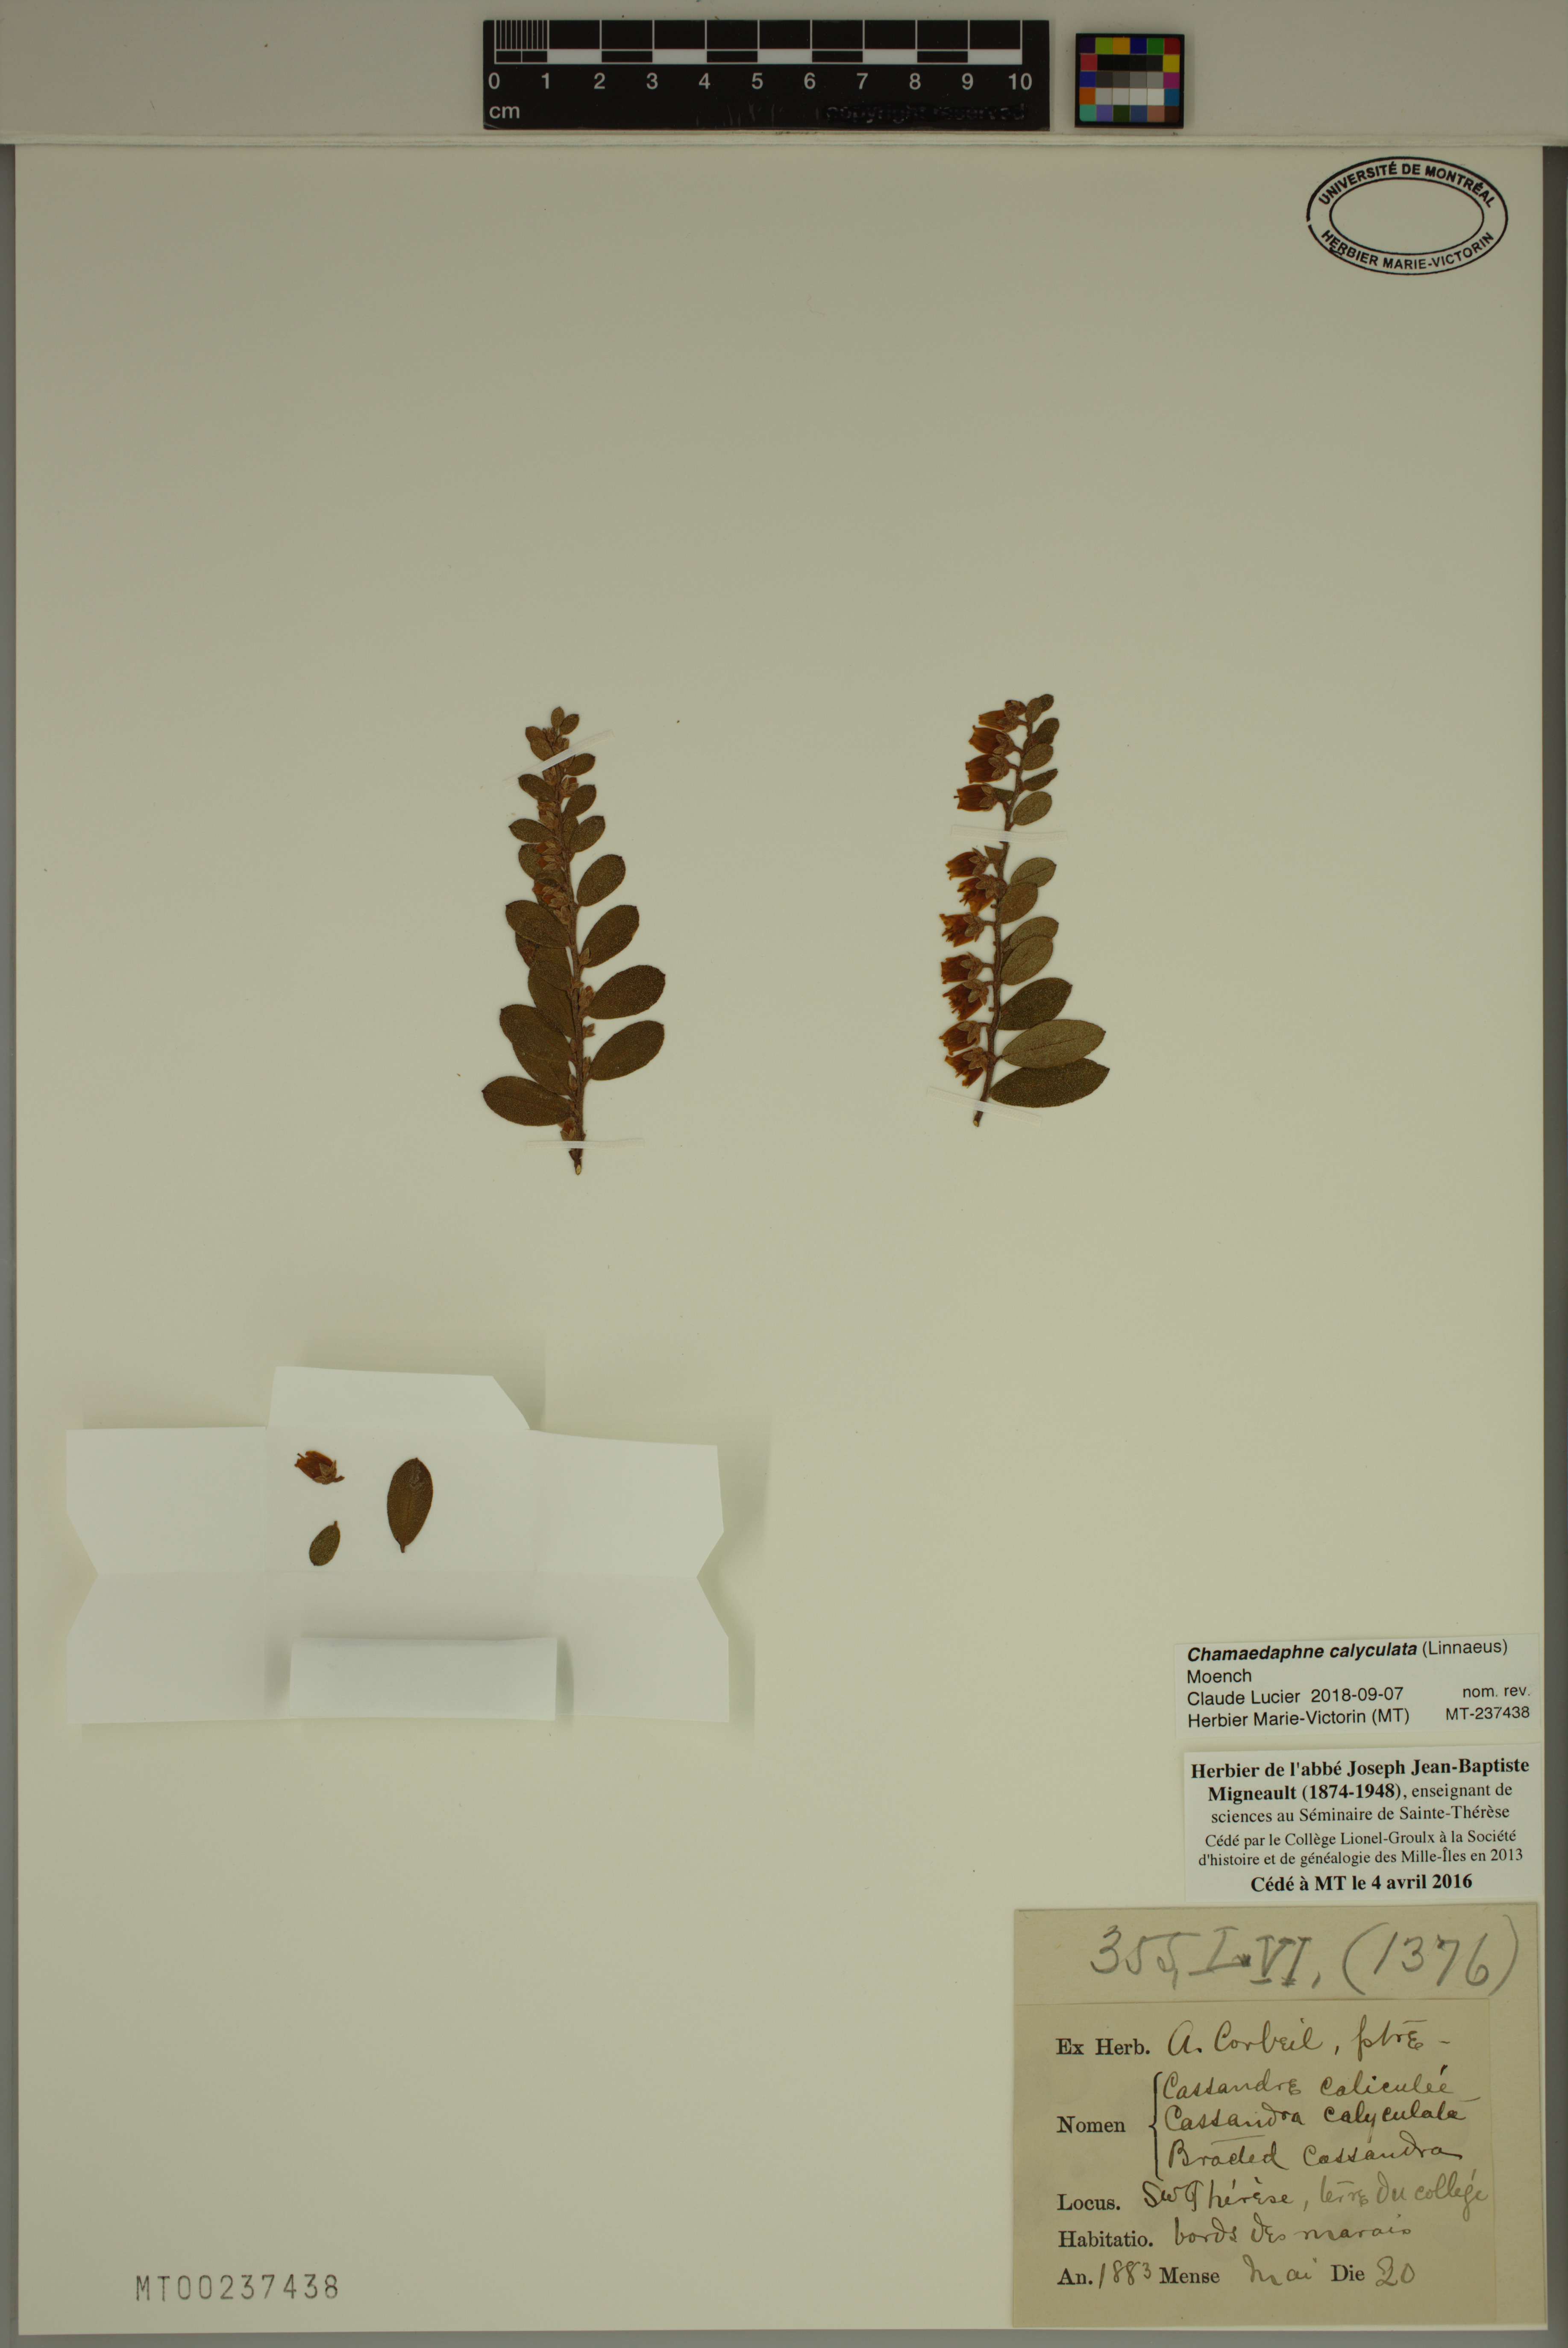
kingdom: Plantae
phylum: Tracheophyta
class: Magnoliopsida
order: Ericales
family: Ericaceae
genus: Chamaedaphne
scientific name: Chamaedaphne calyculata
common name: Leatherleaf
